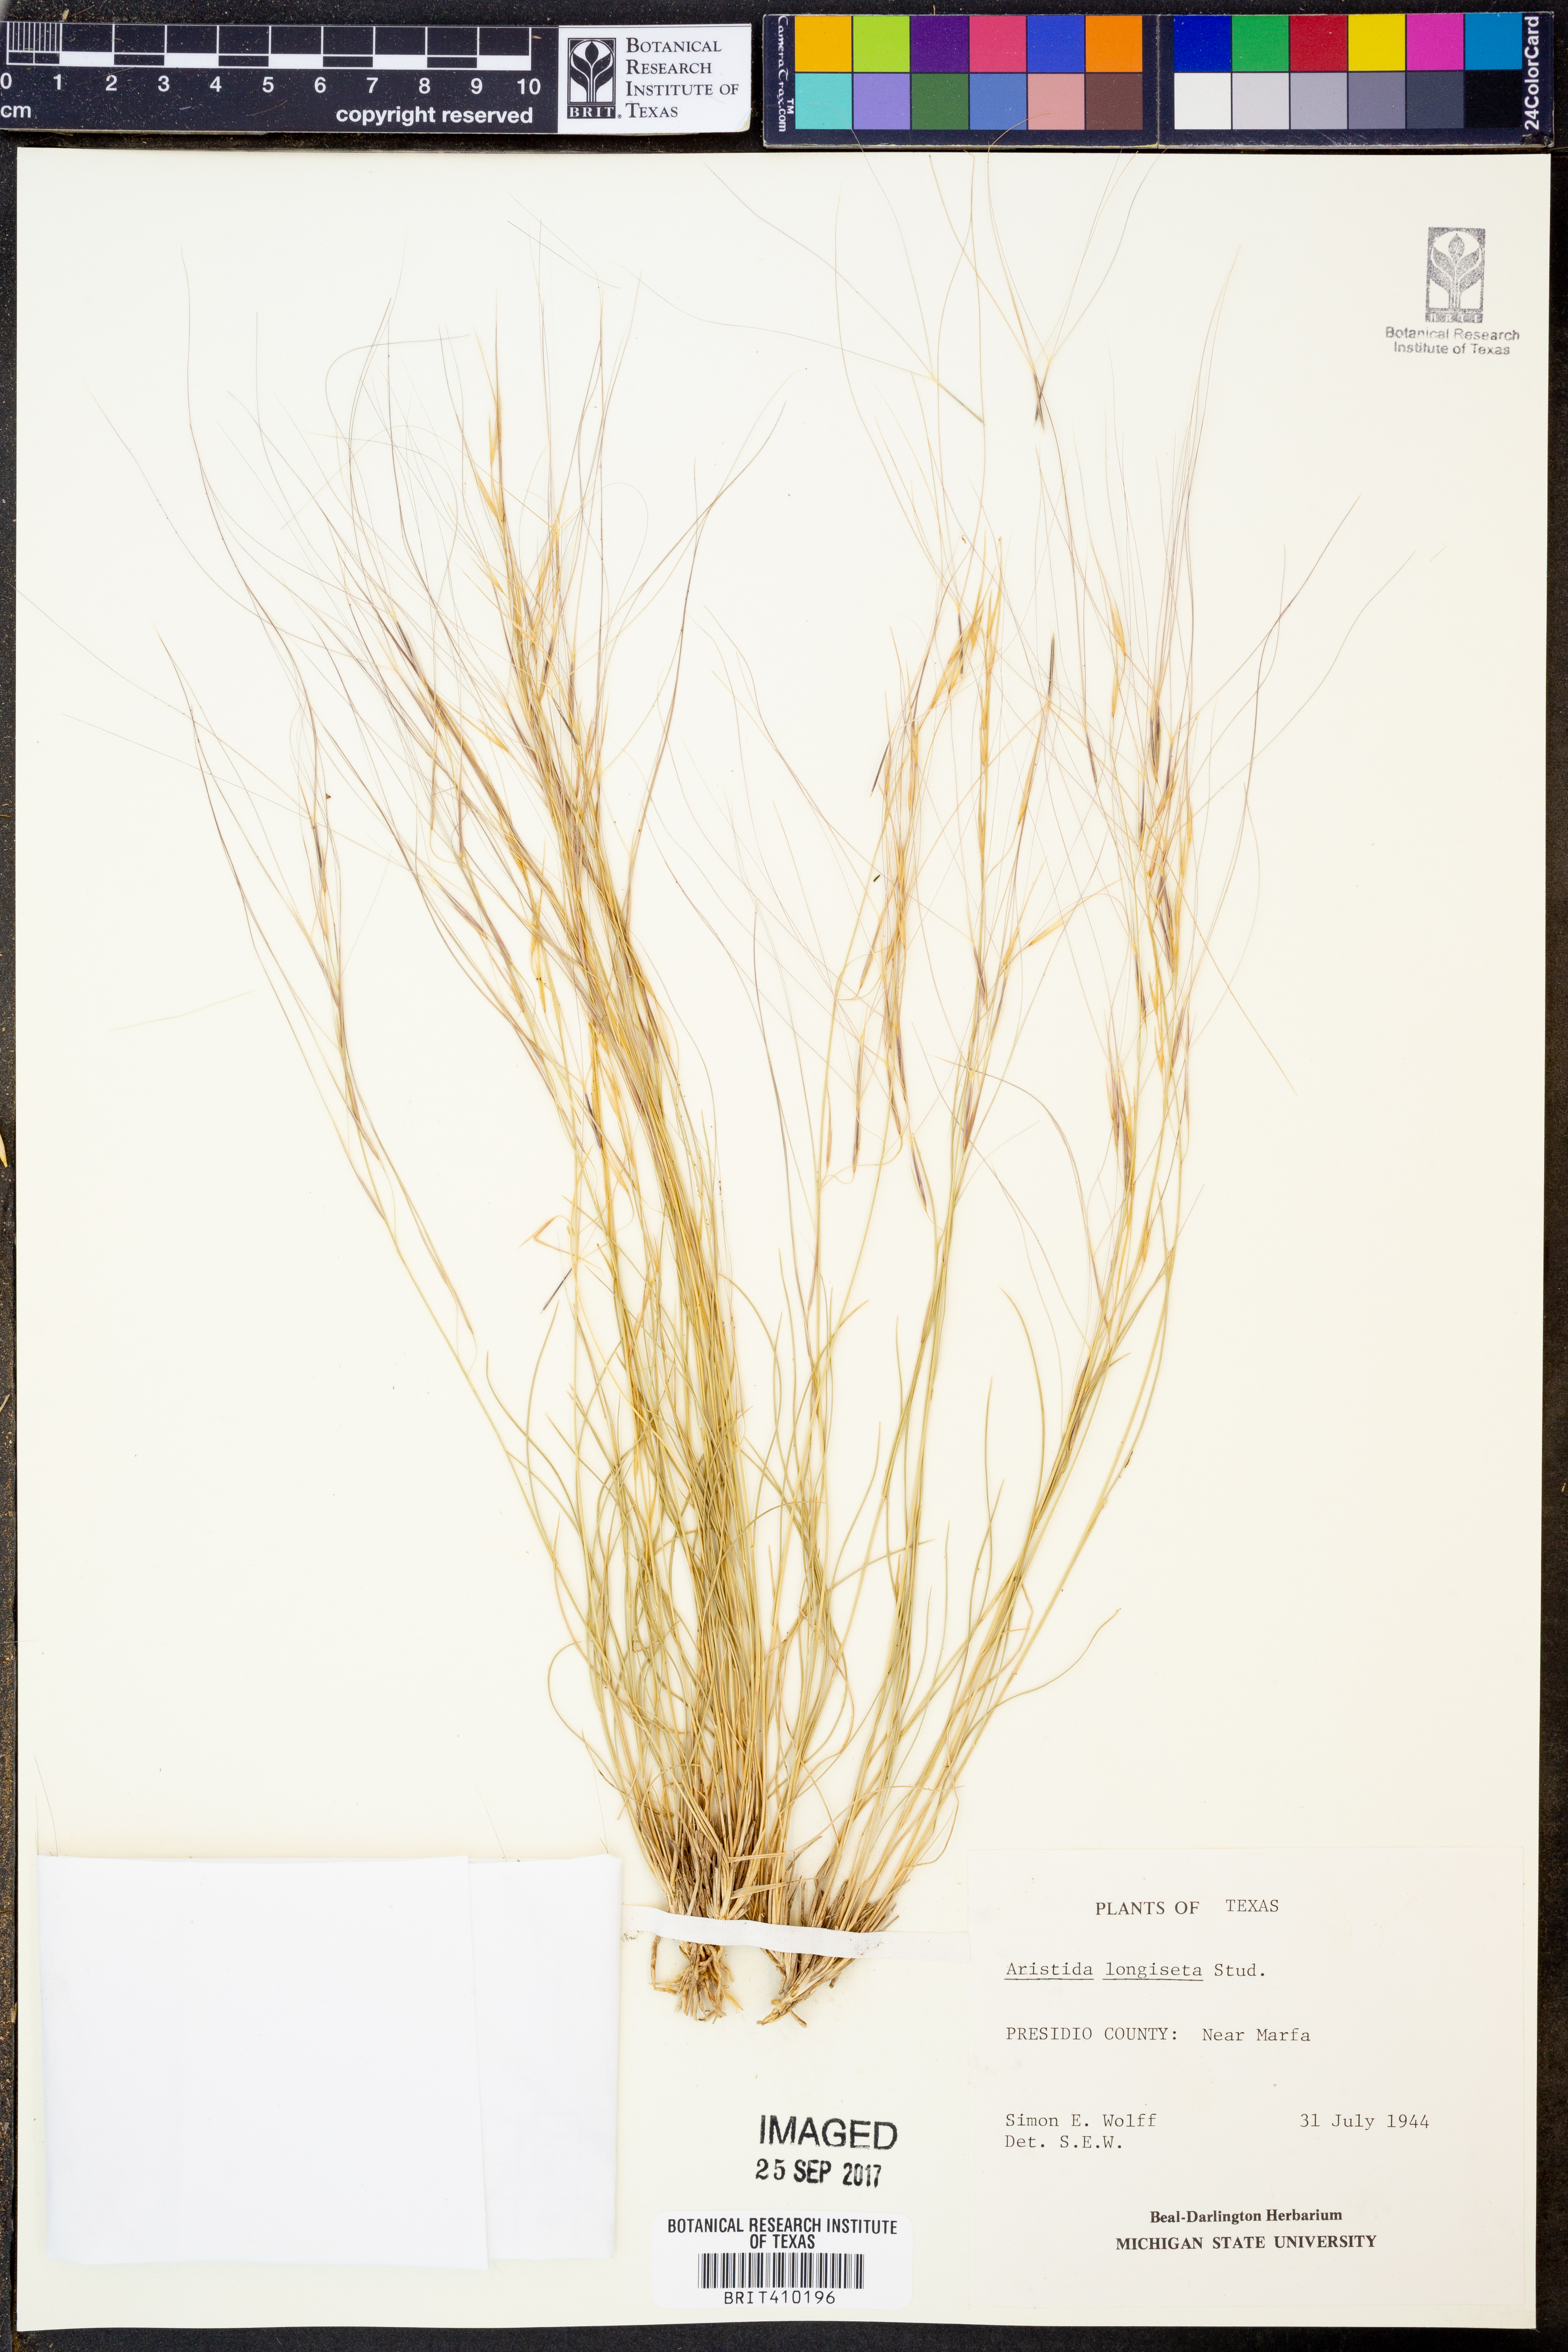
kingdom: Plantae
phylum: Tracheophyta
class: Liliopsida
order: Poales
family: Poaceae
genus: Aristida
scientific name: Aristida longiseta
